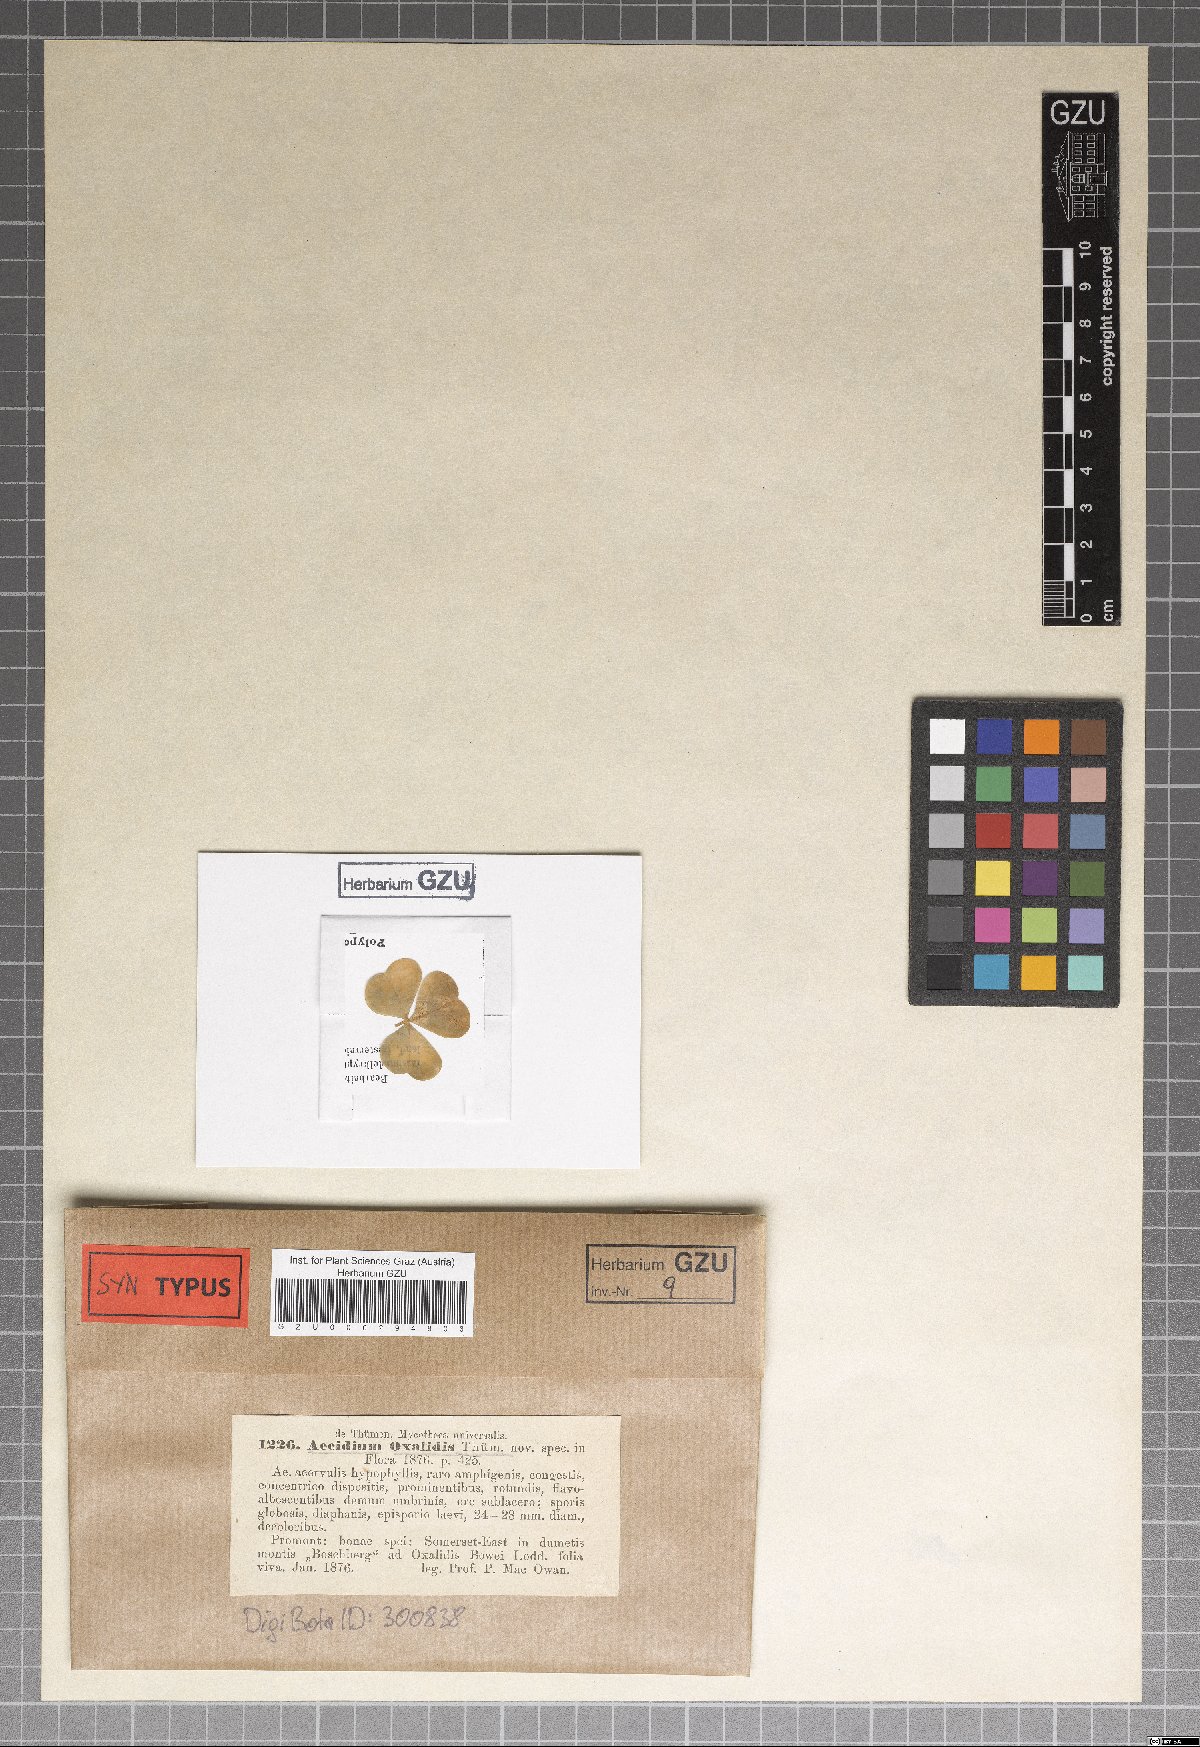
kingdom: Fungi
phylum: Basidiomycota
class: Pucciniomycetes
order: Pucciniales
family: Pucciniaceae
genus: Puccinia
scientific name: Puccinia sorghi
